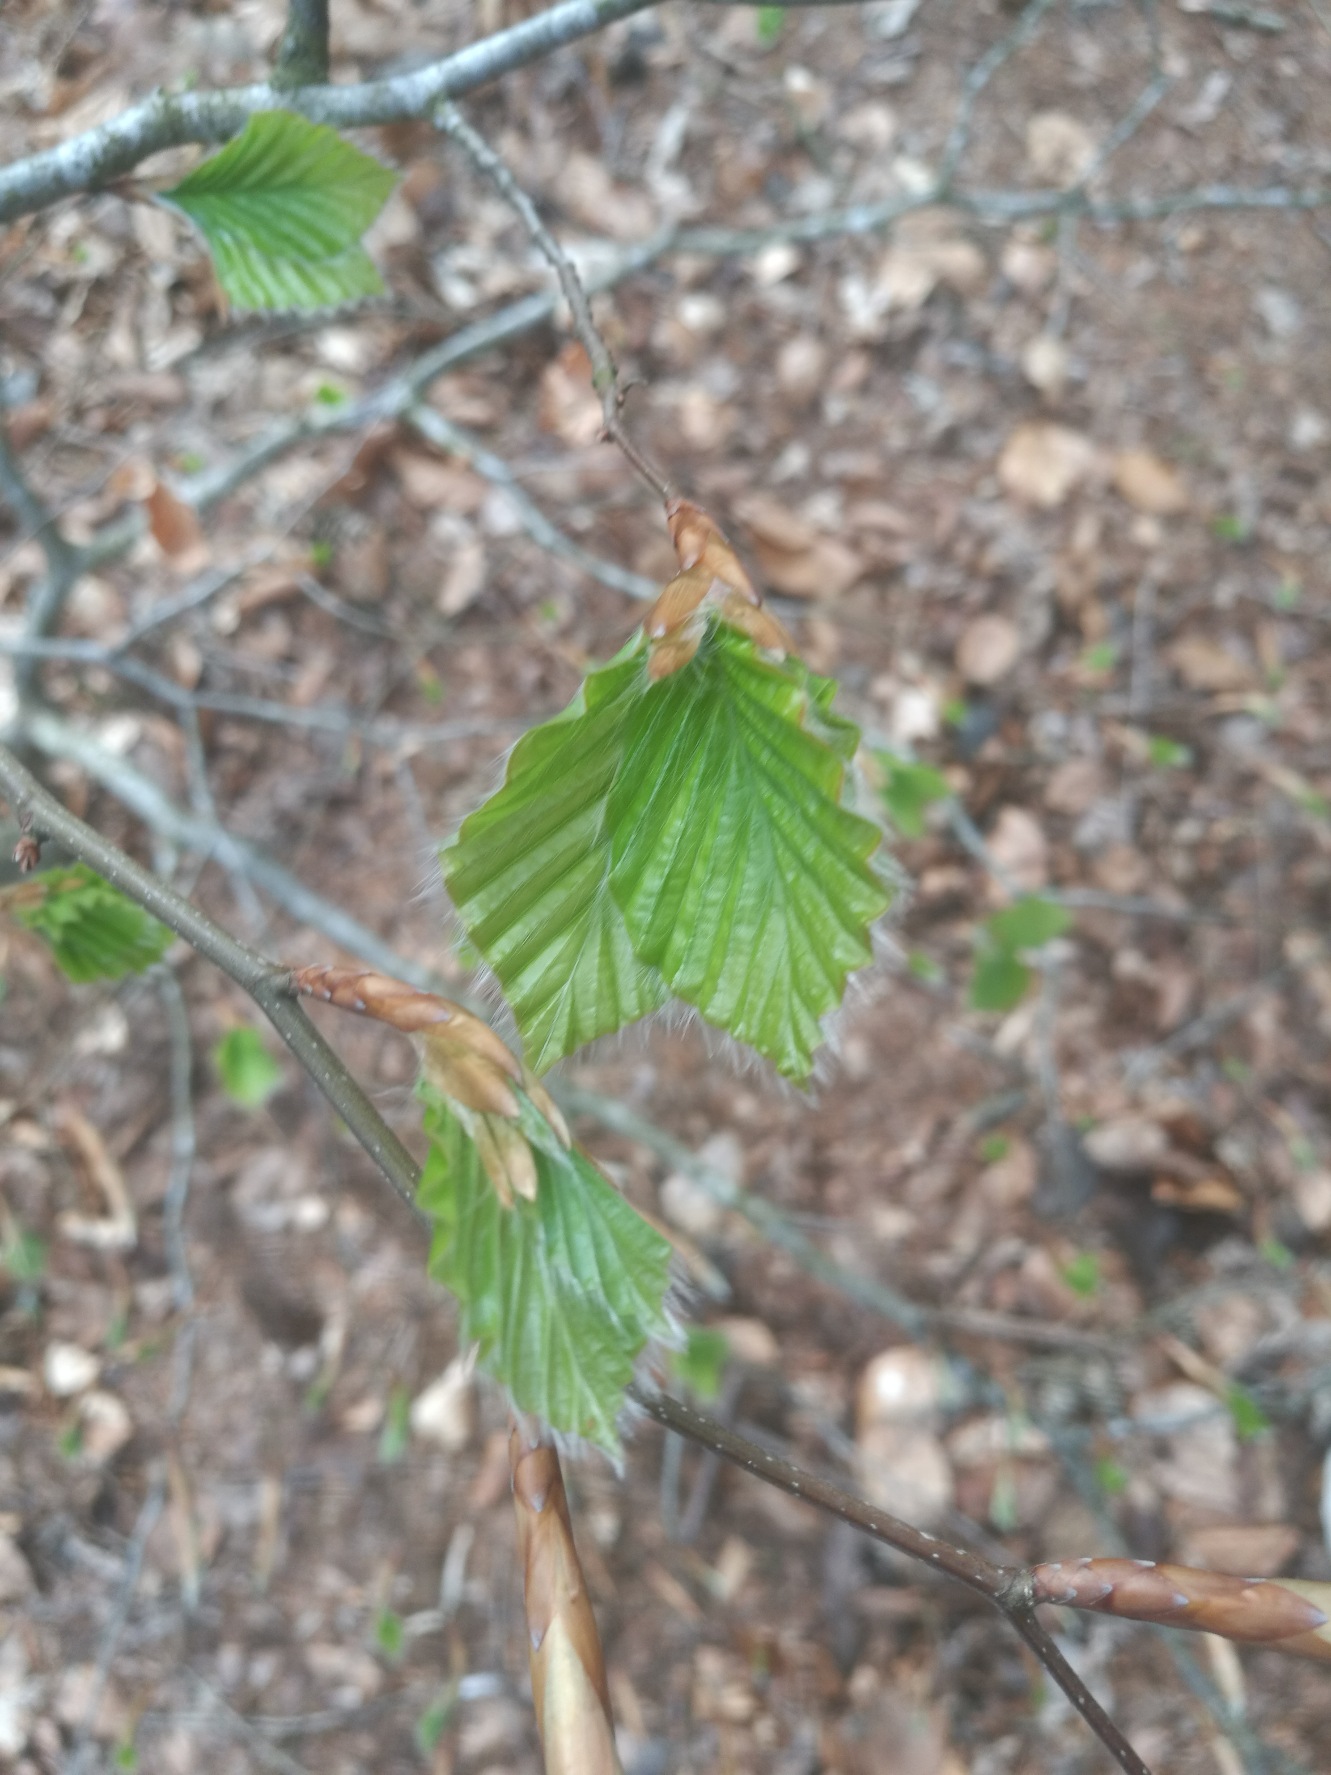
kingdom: Plantae
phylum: Tracheophyta
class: Magnoliopsida
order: Fagales
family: Fagaceae
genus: Fagus
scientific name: Fagus sylvatica
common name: Bøg
